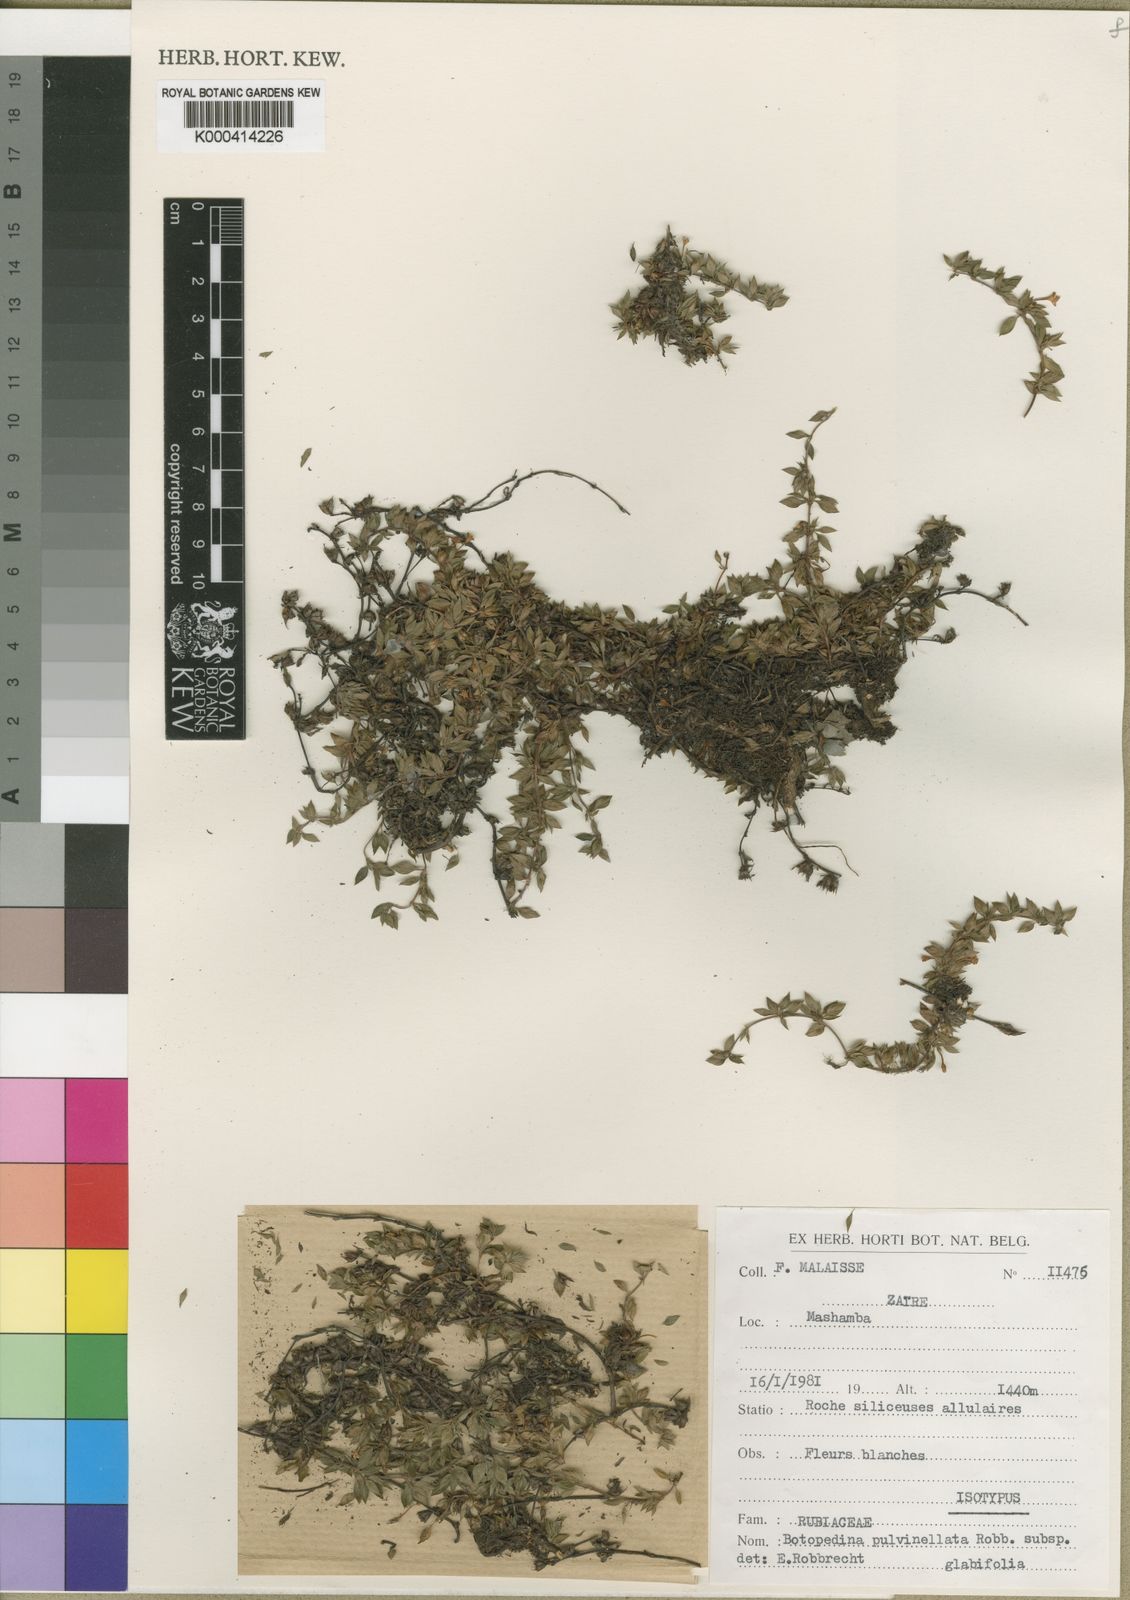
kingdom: Plantae
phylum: Tracheophyta
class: Magnoliopsida
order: Gentianales
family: Rubiaceae
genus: Batopedina
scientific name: Batopedina pulvinellata
